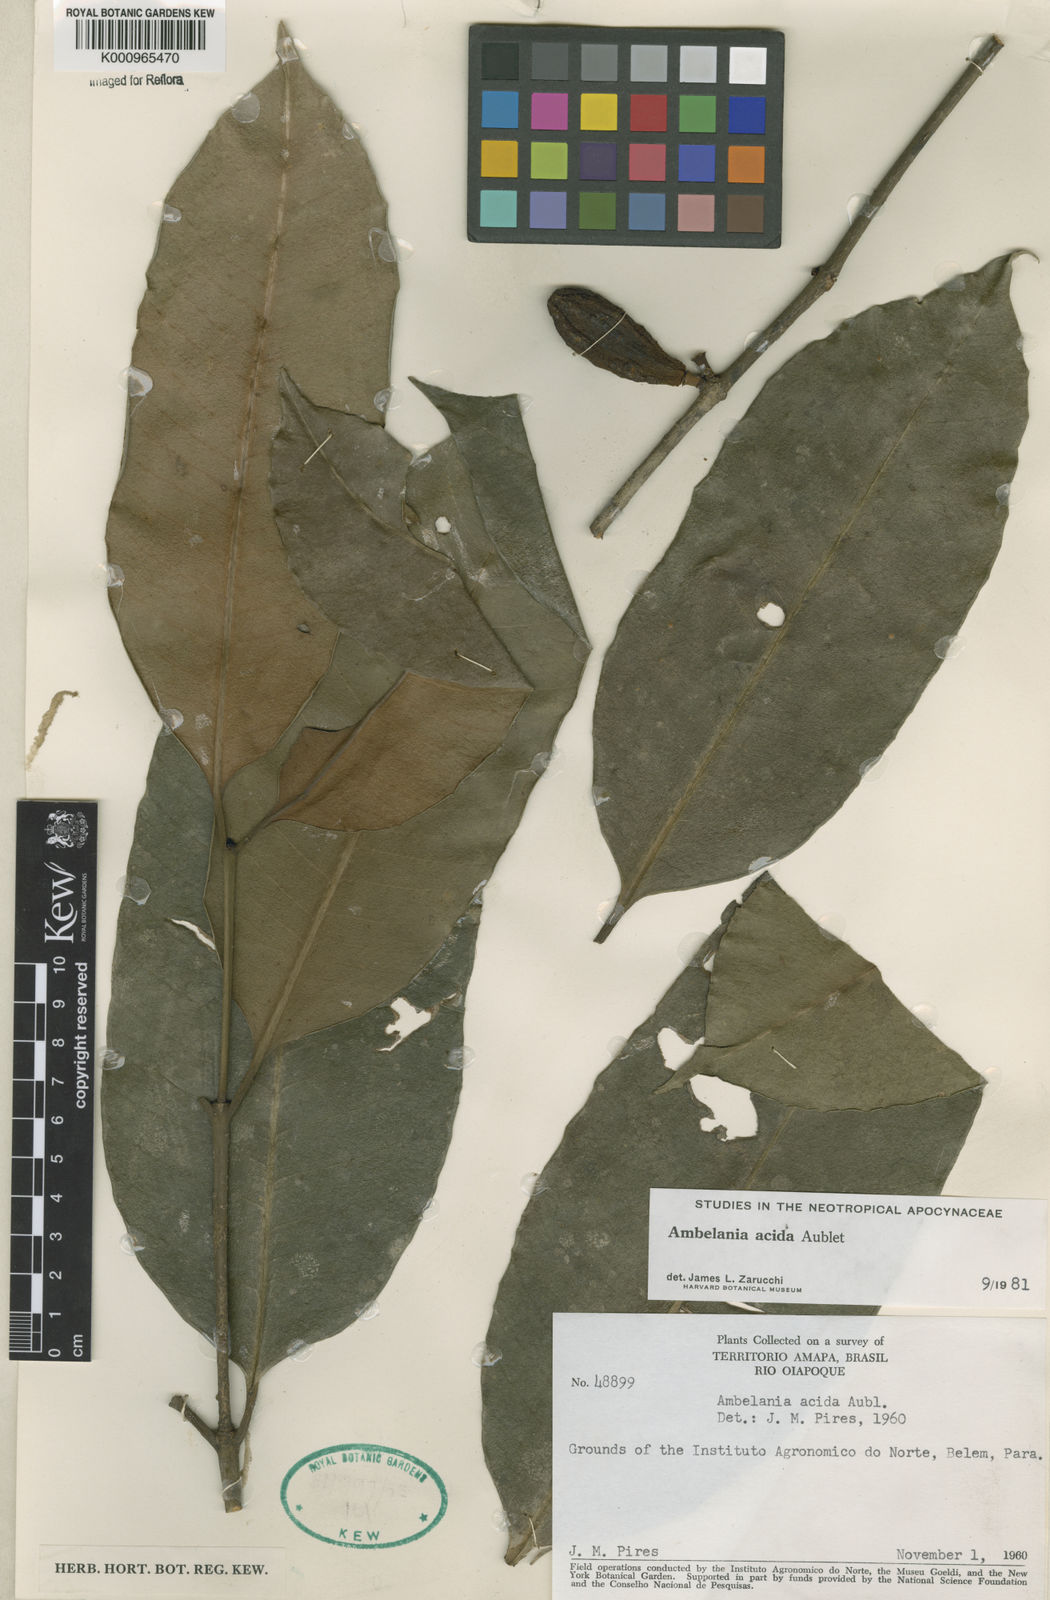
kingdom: Plantae
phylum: Tracheophyta
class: Magnoliopsida
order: Gentianales
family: Apocynaceae
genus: Ambelania
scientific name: Ambelania acida
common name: Bagasse
